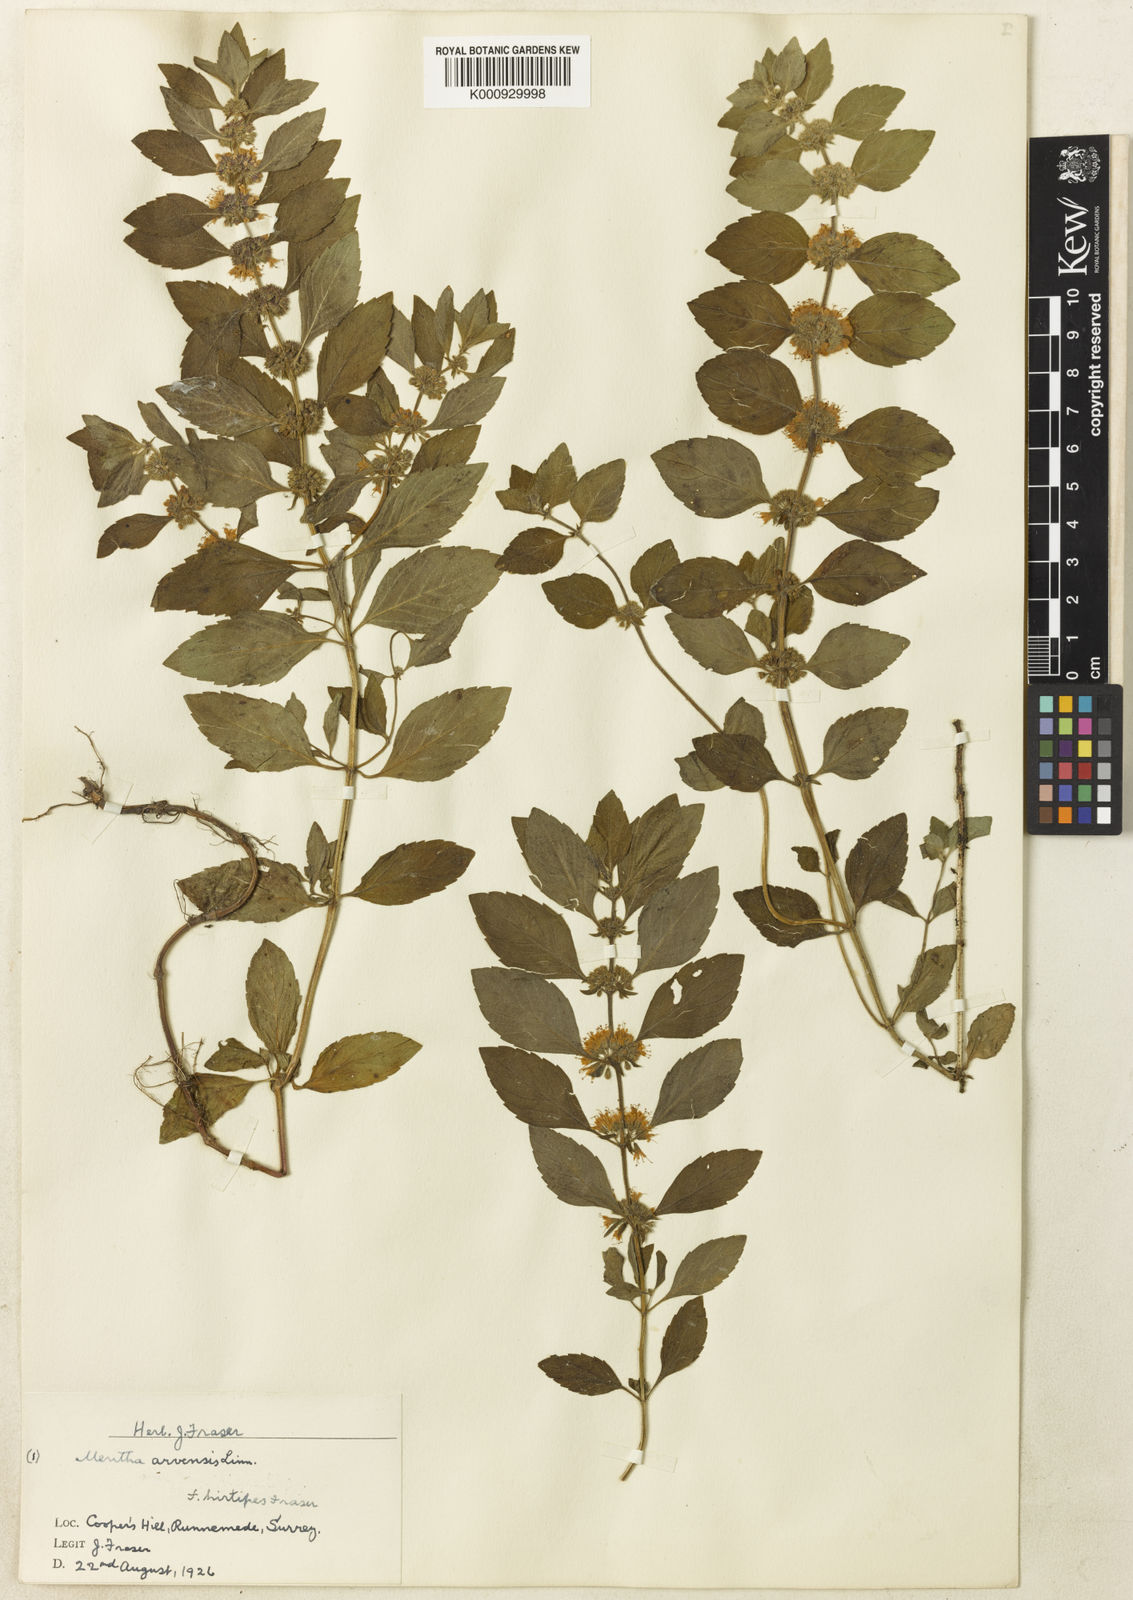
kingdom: Plantae
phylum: Tracheophyta
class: Magnoliopsida
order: Lamiales
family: Lamiaceae
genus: Mentha
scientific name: Mentha arvensis
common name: Corn mint
